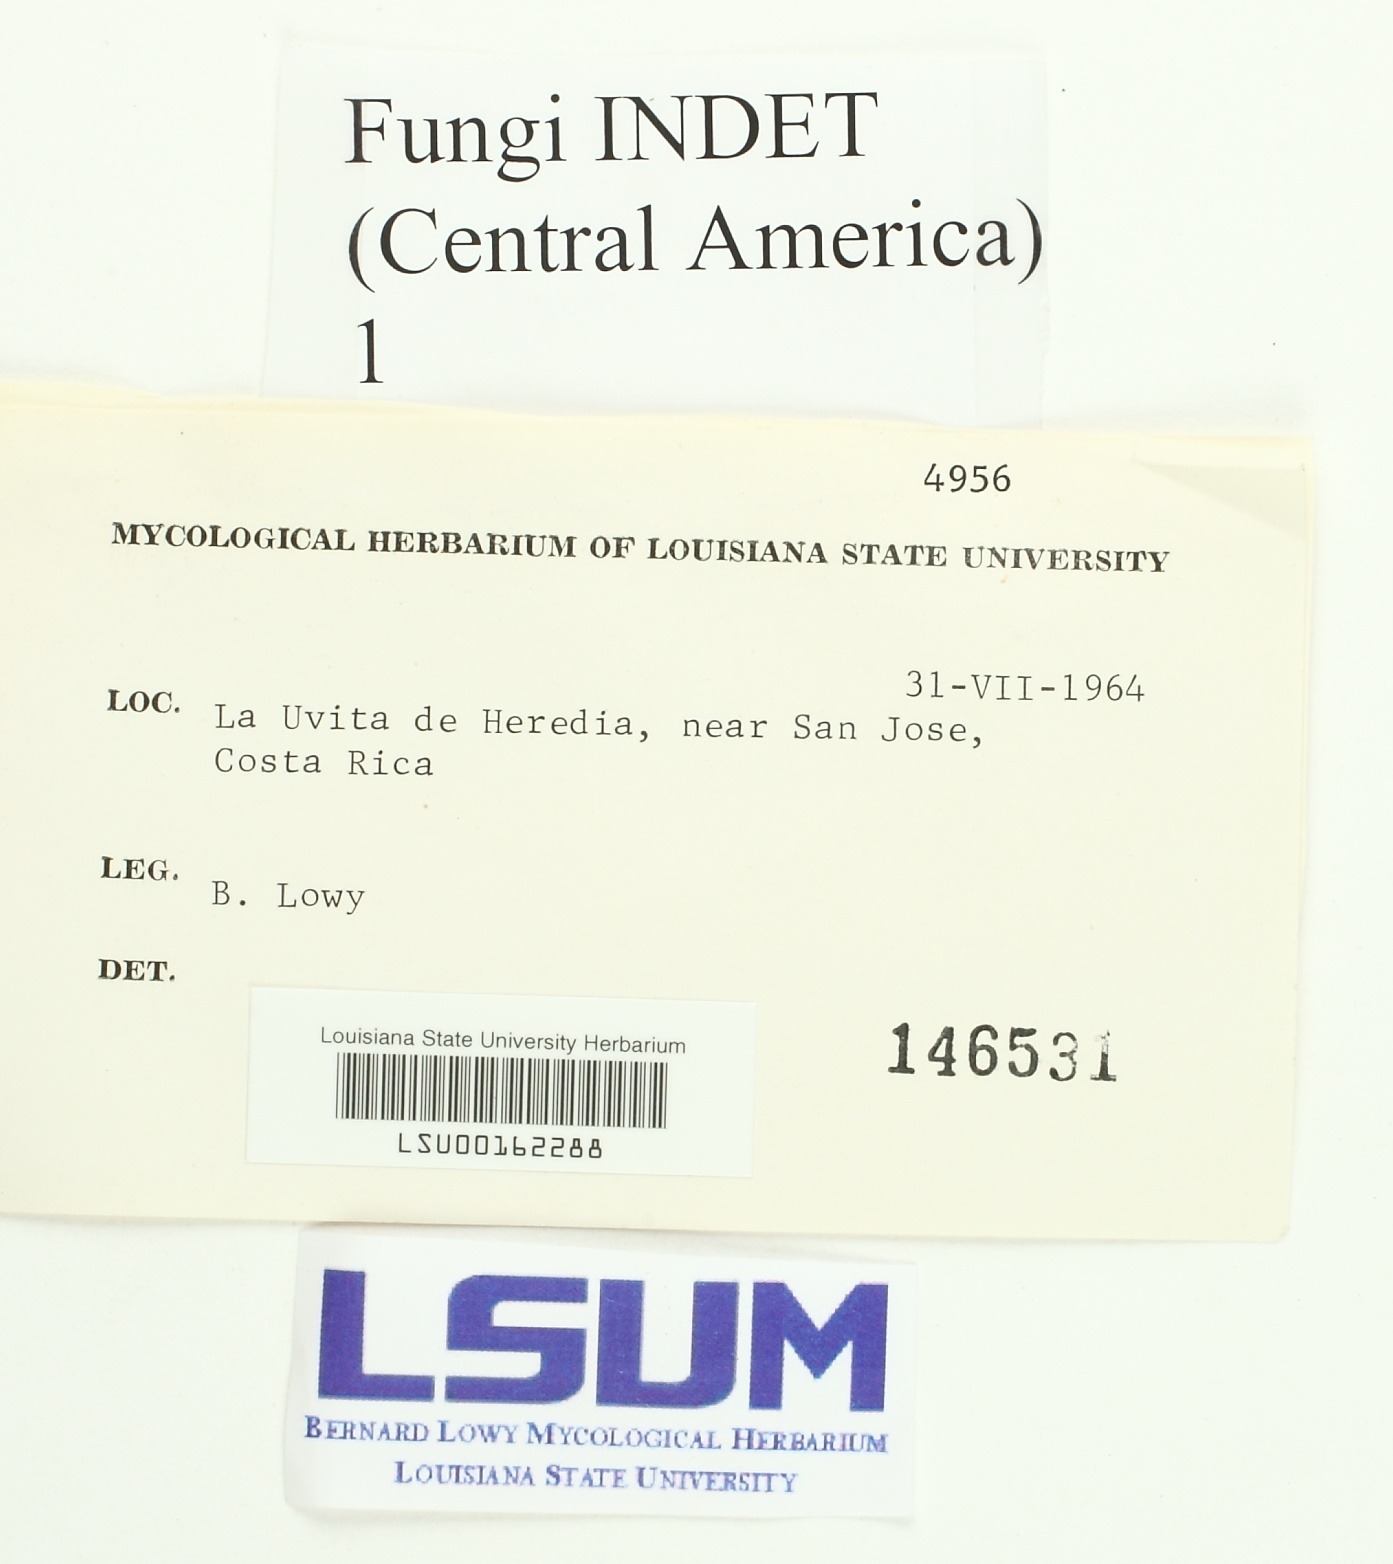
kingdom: Fungi
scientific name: Fungi
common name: Fungi
